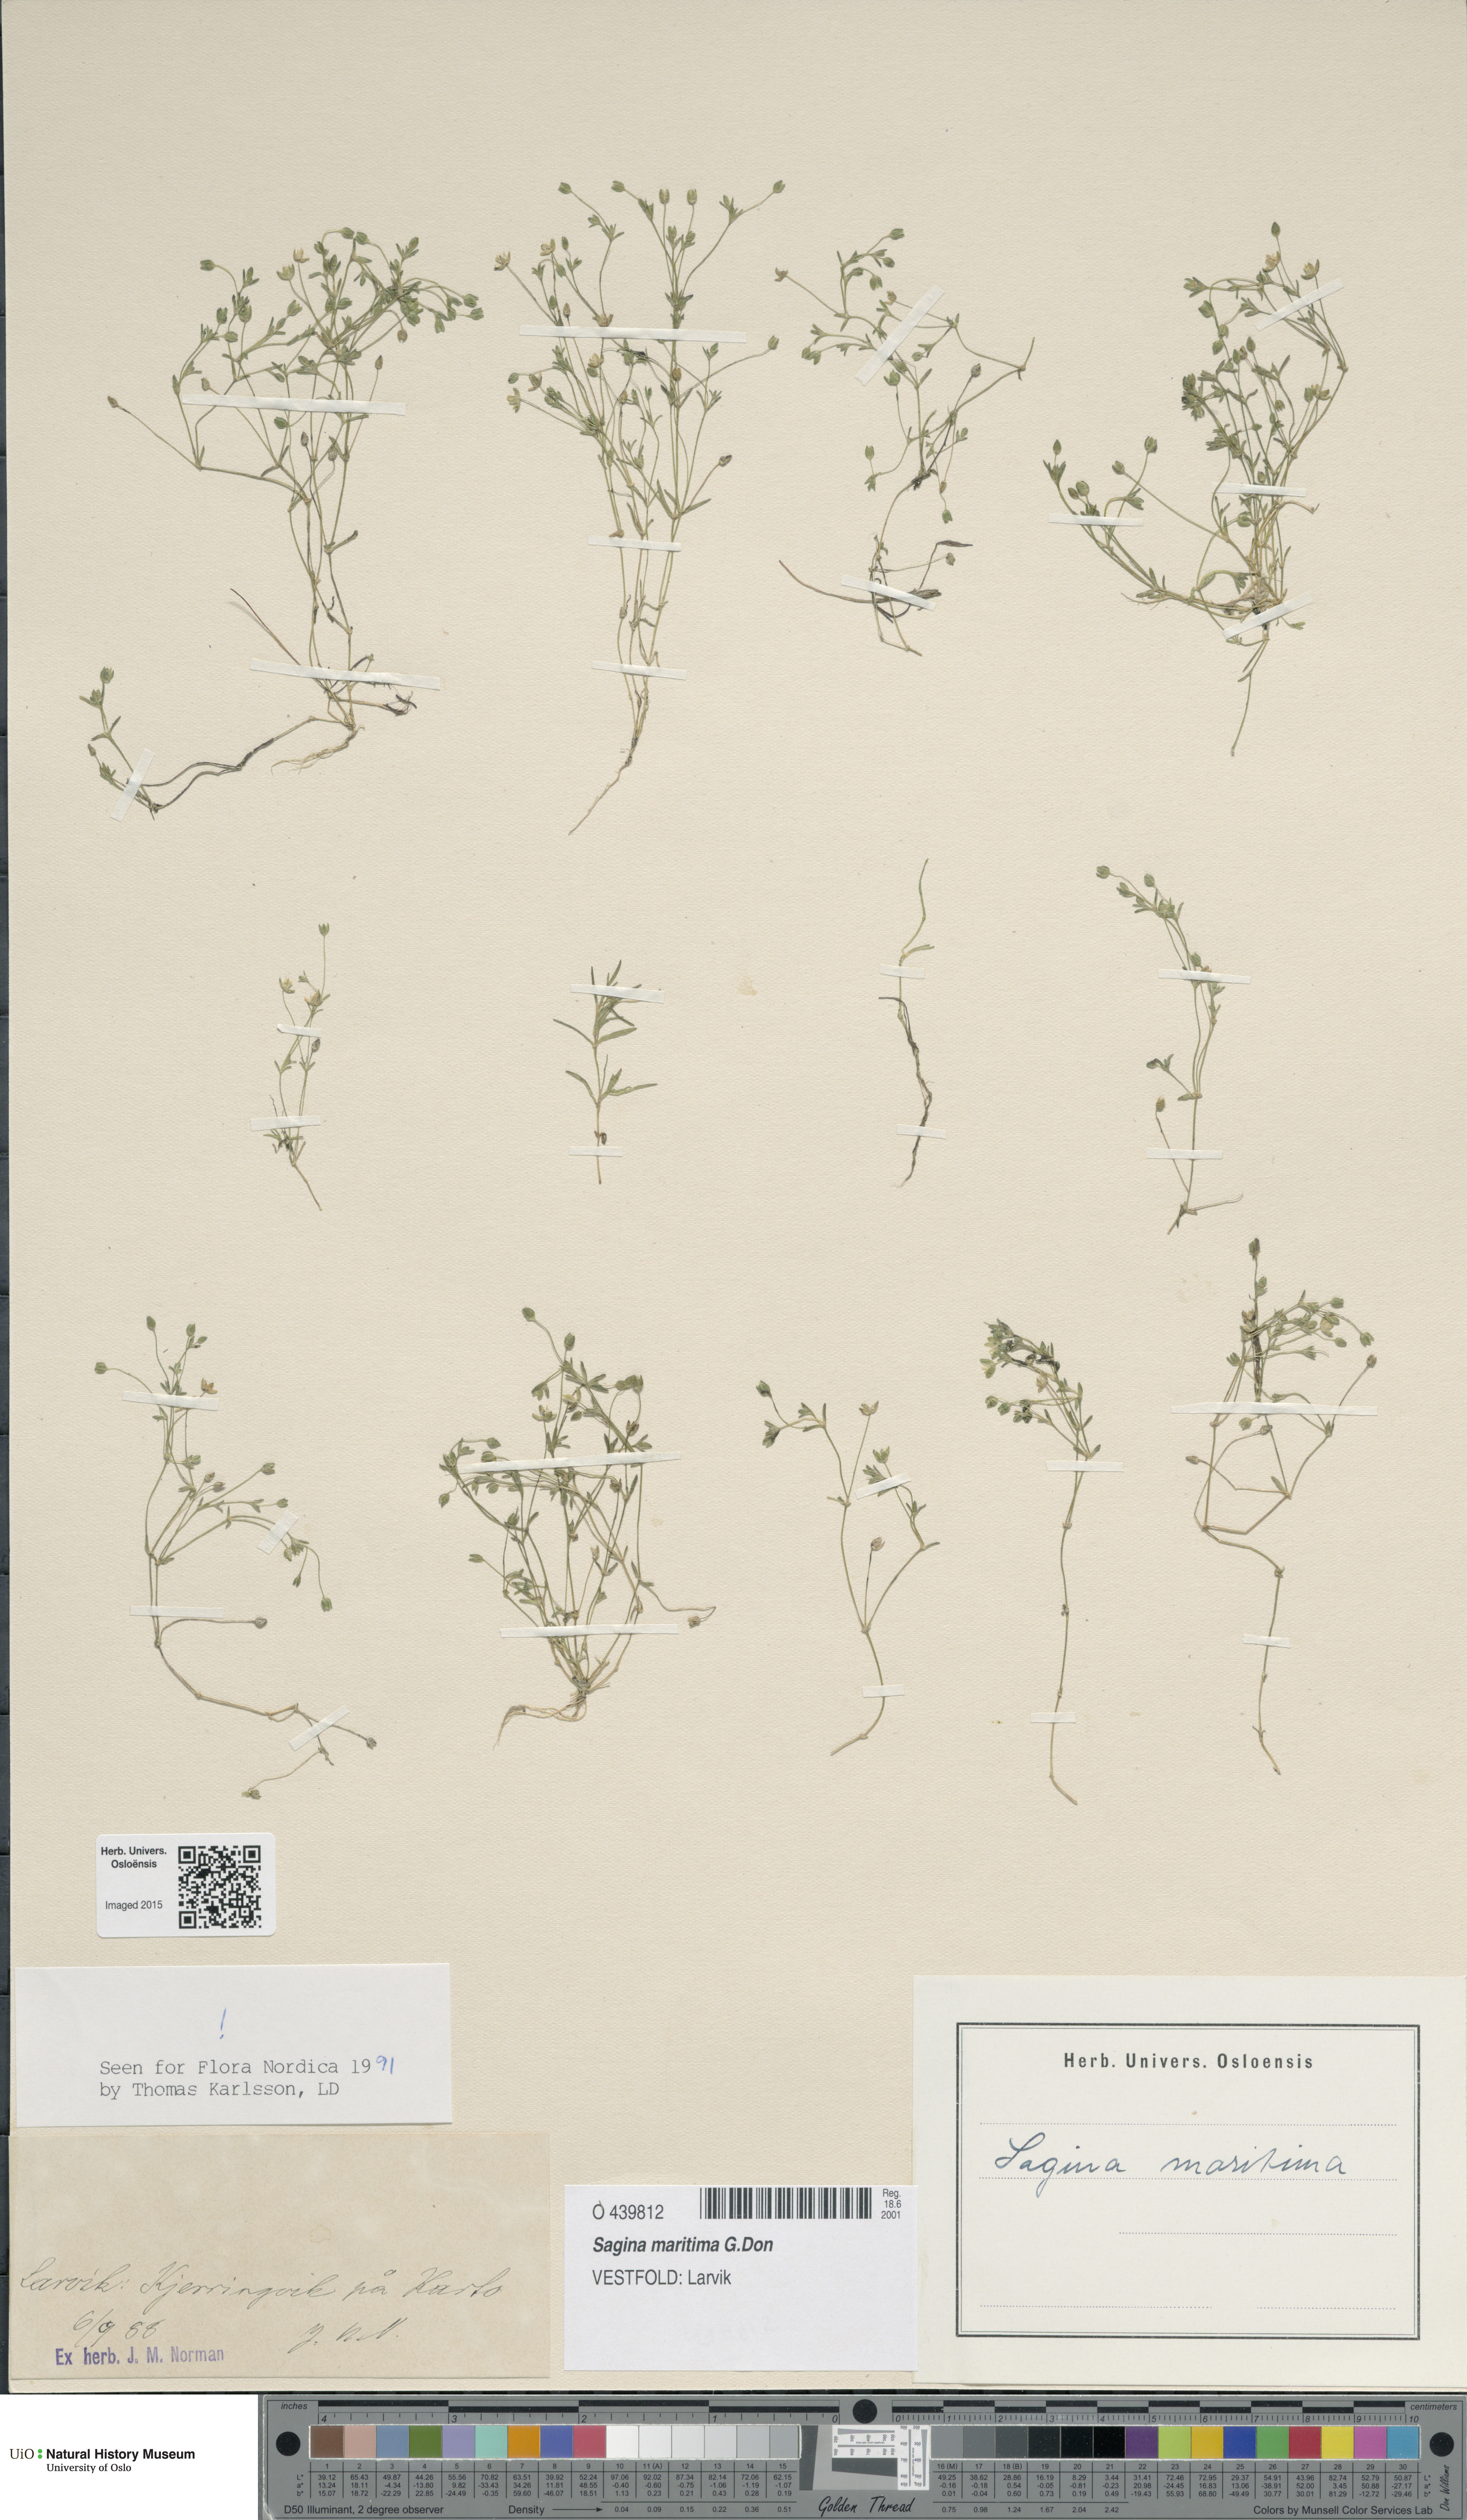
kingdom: Plantae
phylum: Tracheophyta
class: Magnoliopsida
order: Caryophyllales
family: Caryophyllaceae
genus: Sagina
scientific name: Sagina maritima
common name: Sea pearlwort
